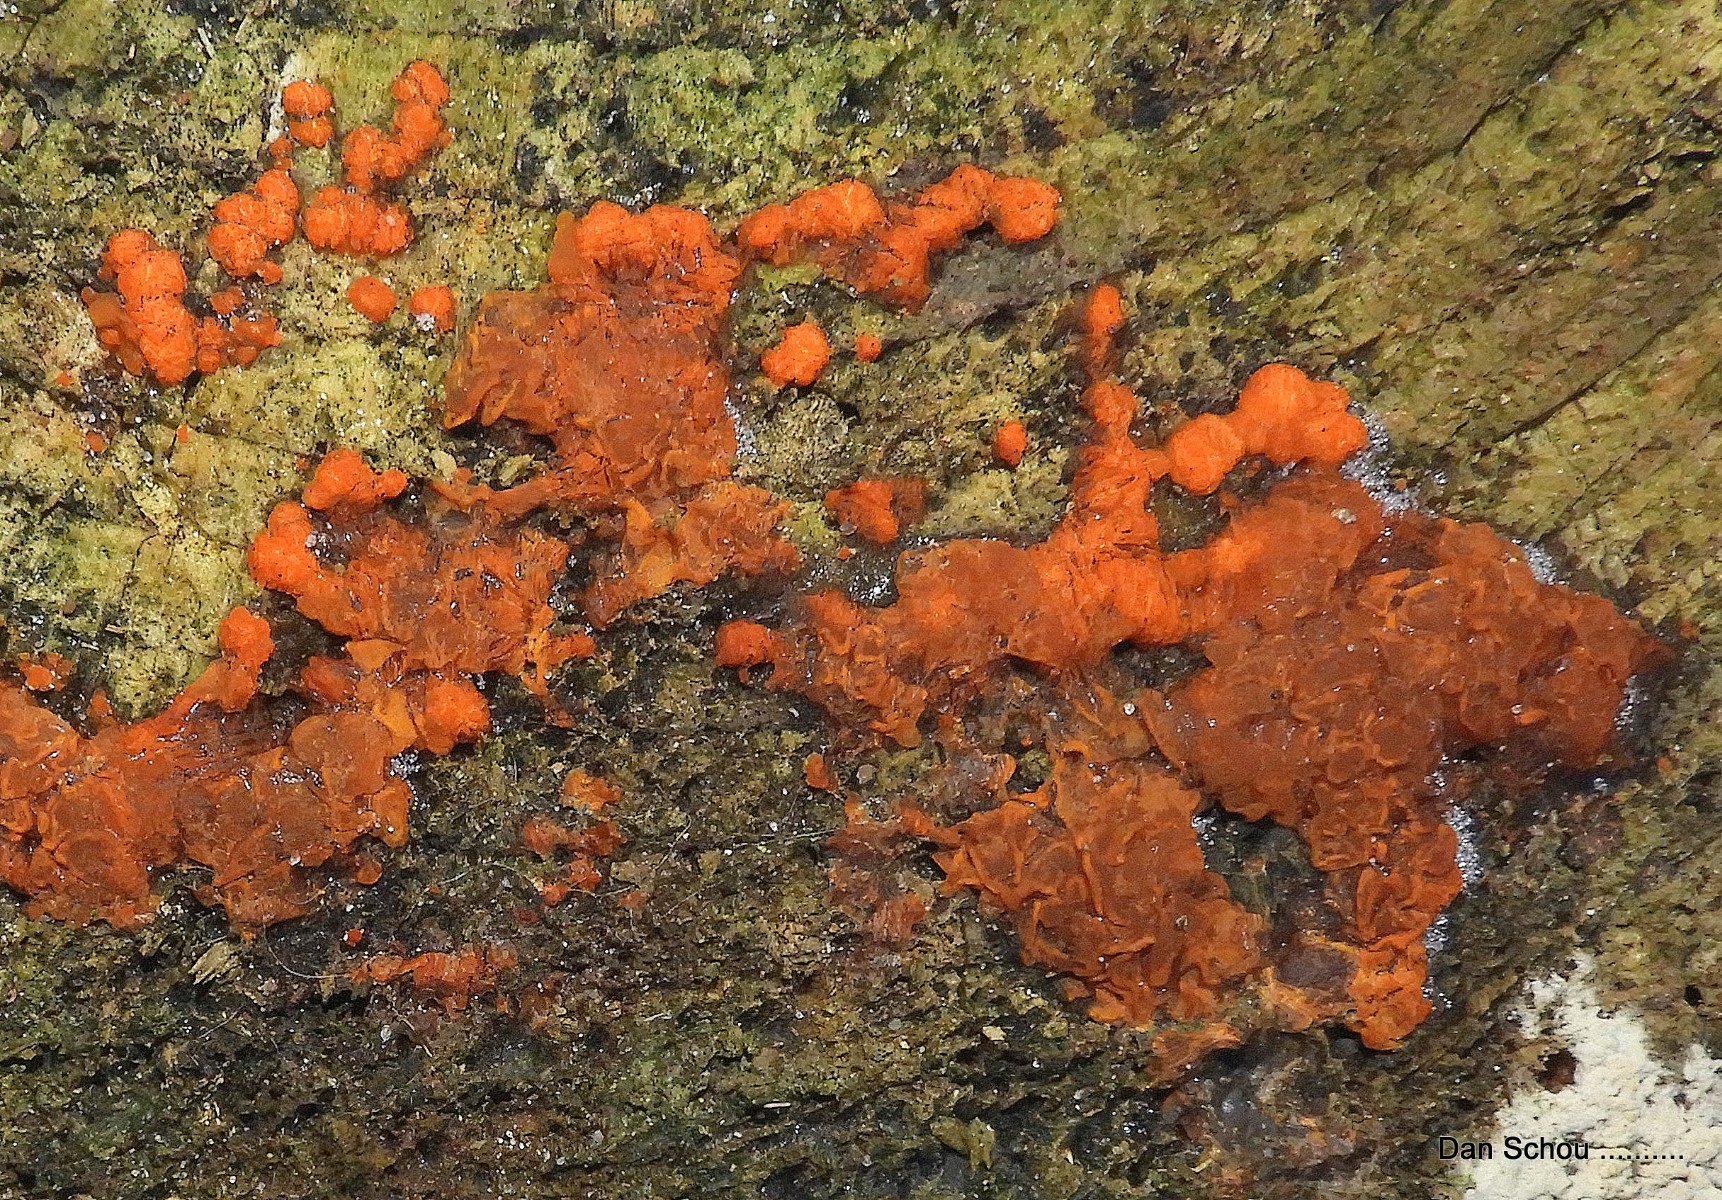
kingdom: Fungi
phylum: Basidiomycota
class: Dacrymycetes
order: Dacrymycetales
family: Dacrymycetaceae
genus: Dacrymyces
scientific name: Dacrymyces stillatus
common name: almindelig tåresvamp
